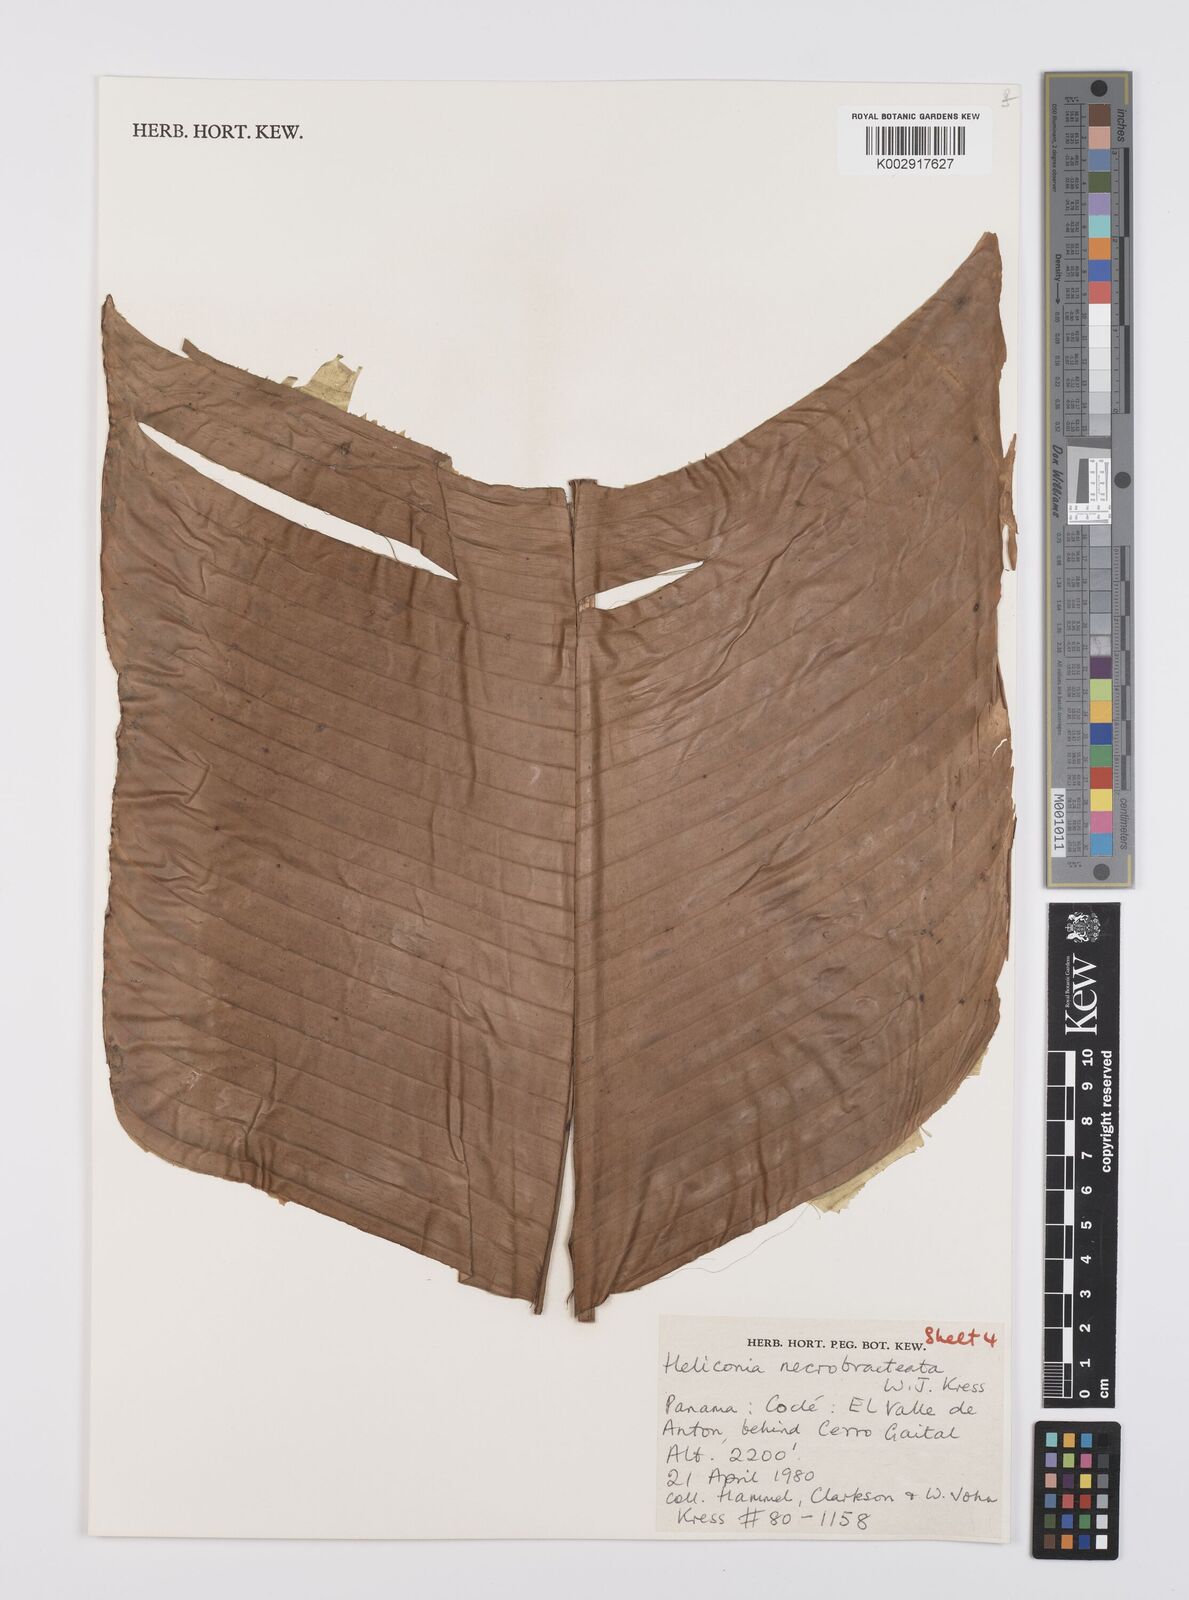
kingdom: Plantae
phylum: Tracheophyta
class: Liliopsida
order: Zingiberales
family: Heliconiaceae
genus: Heliconia
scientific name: Heliconia necrobracteata
